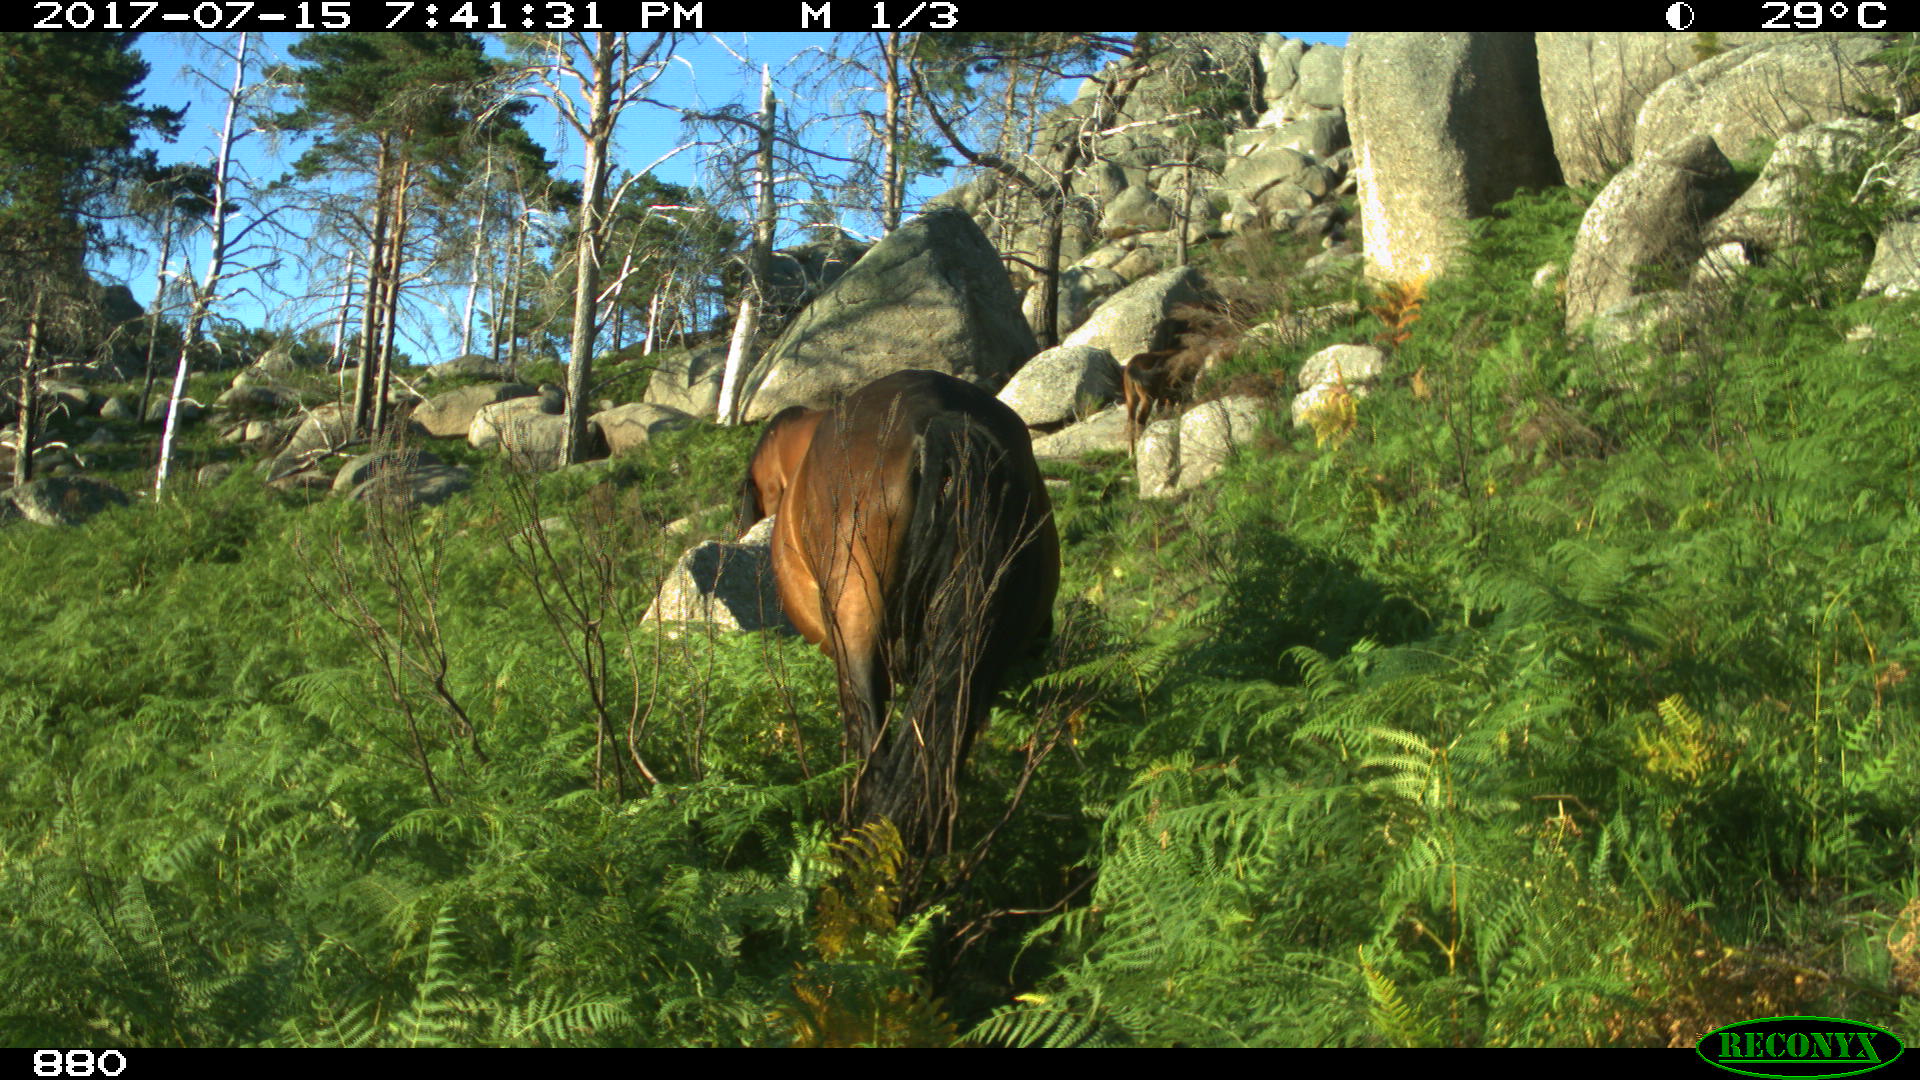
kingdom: Animalia
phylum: Chordata
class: Mammalia
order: Perissodactyla
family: Equidae
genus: Equus
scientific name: Equus caballus
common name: Horse
